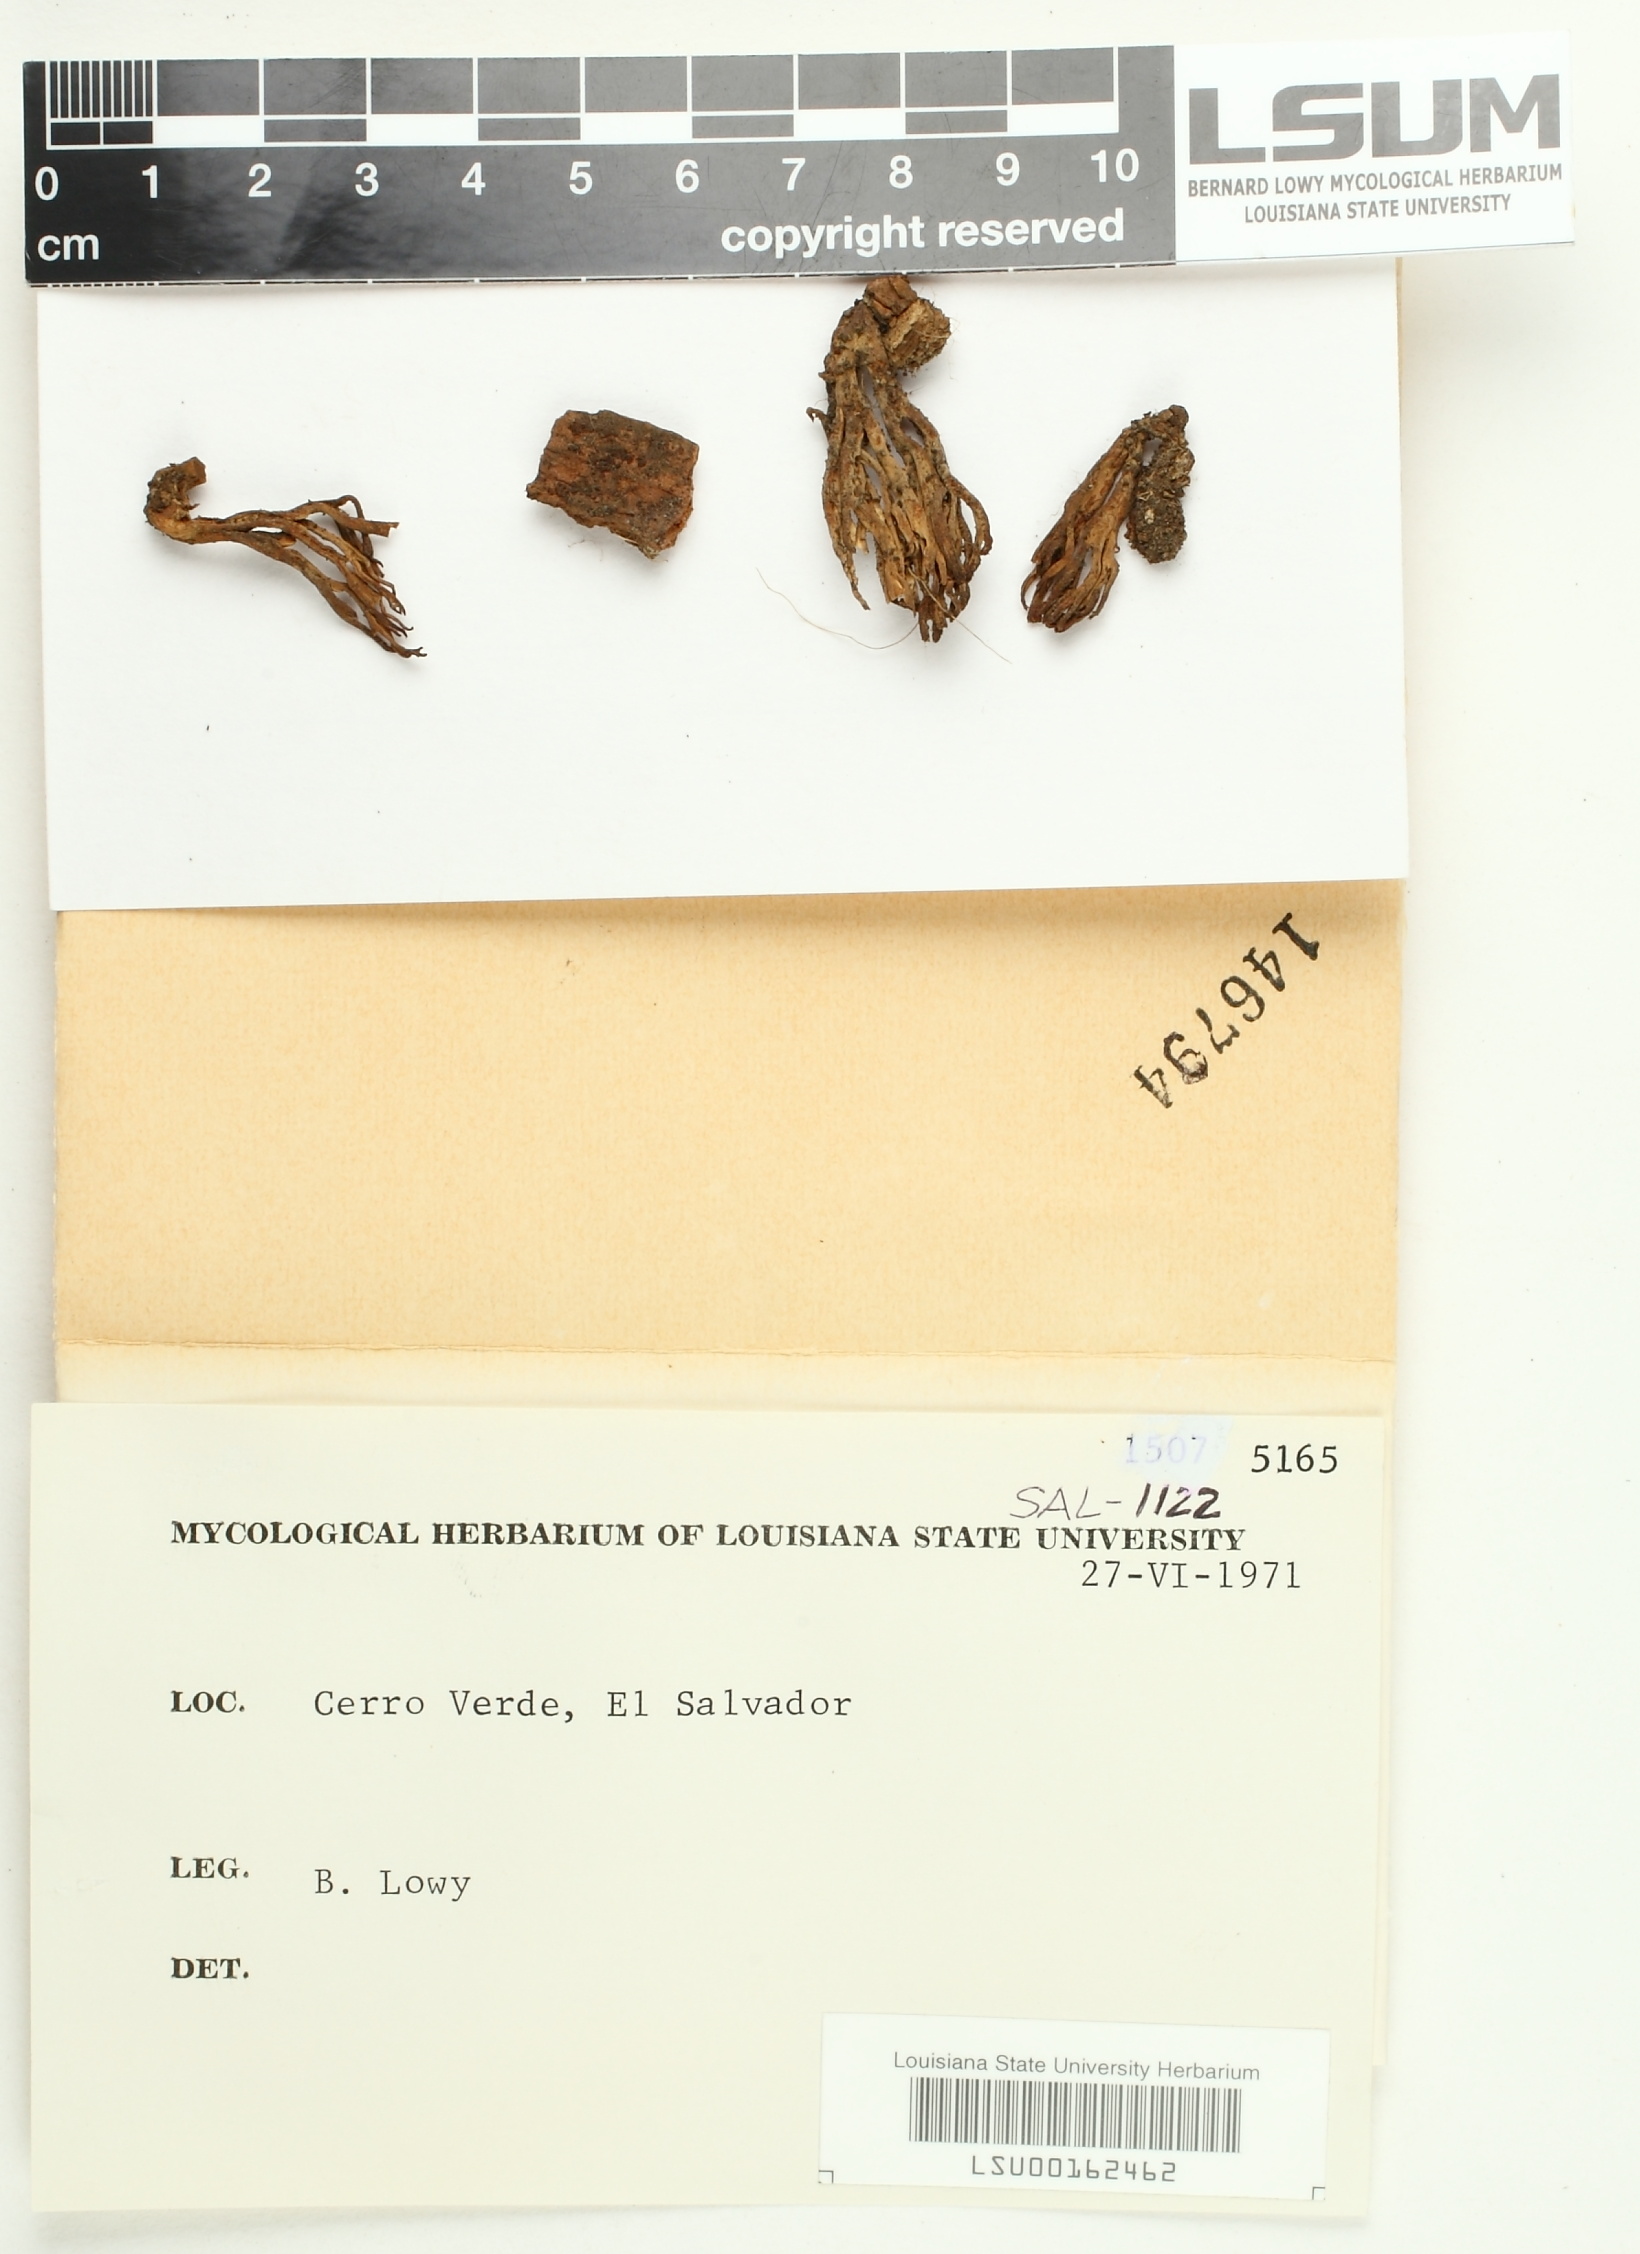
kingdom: Fungi
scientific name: Fungi
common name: Fungi
